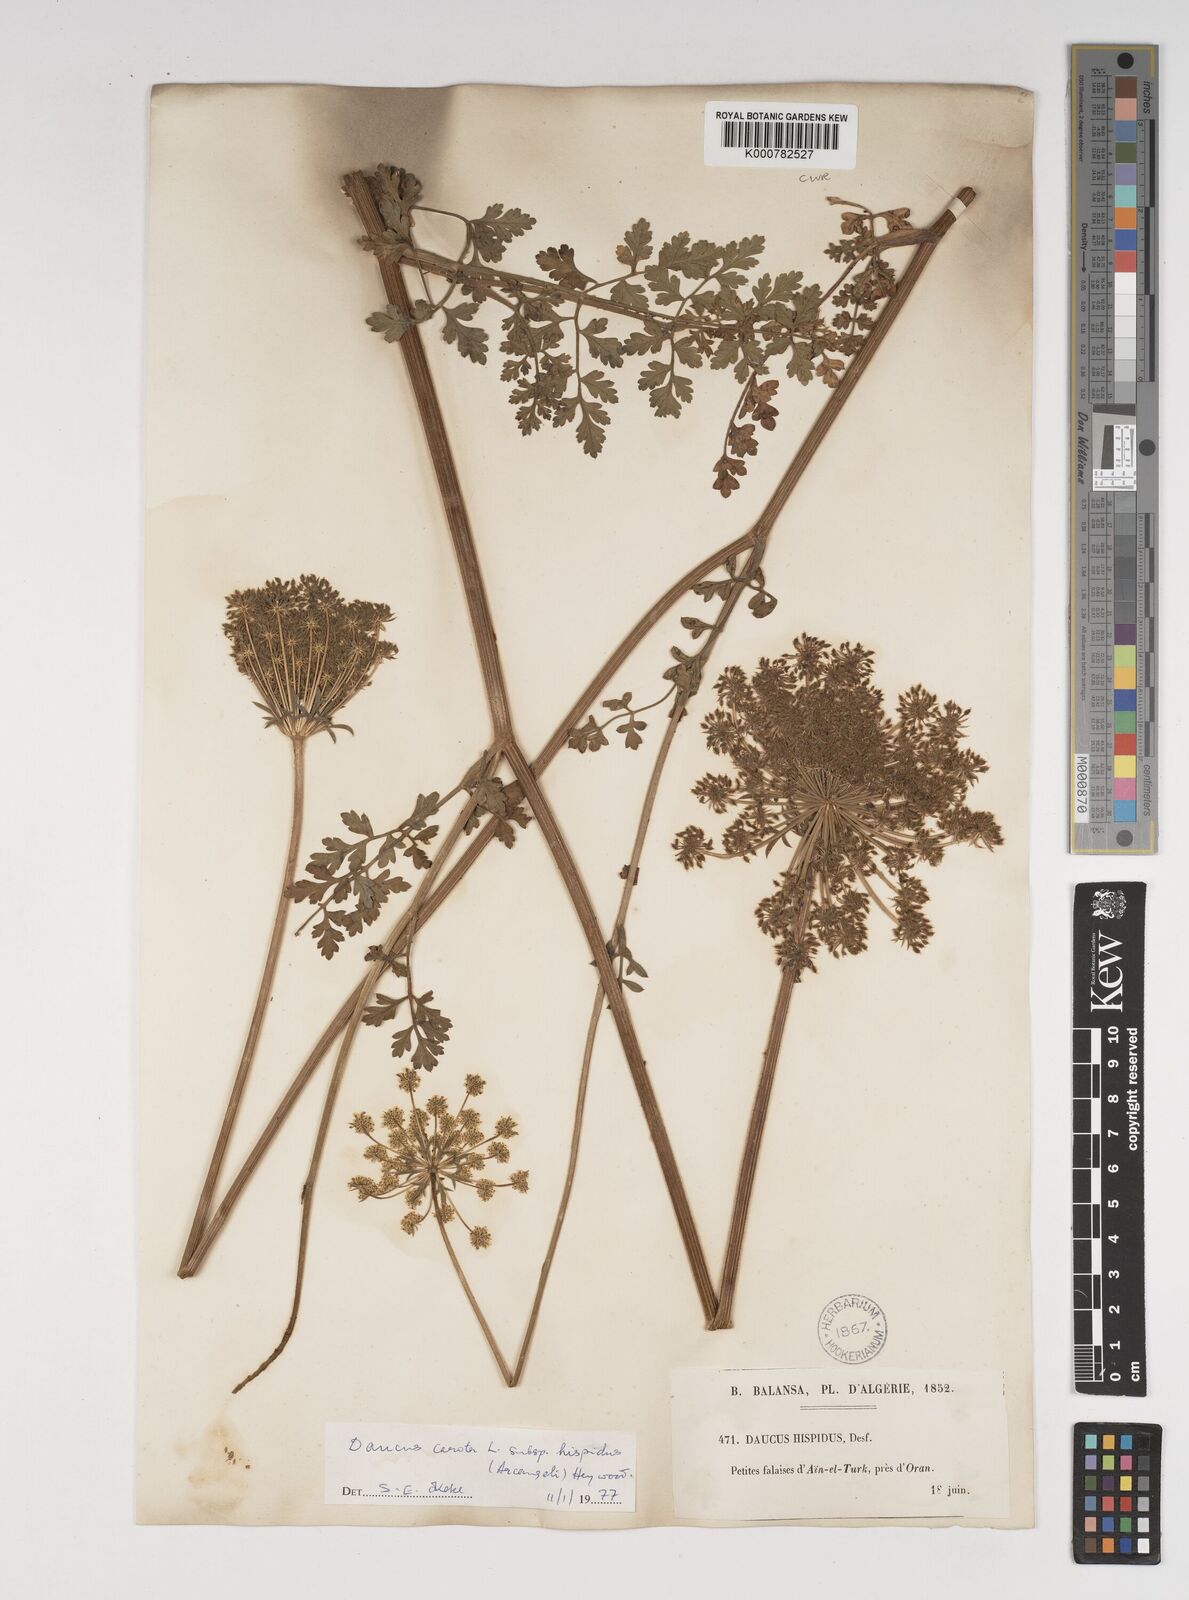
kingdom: Plantae
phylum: Tracheophyta
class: Magnoliopsida
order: Apiales
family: Apiaceae
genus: Daucus
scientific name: Daucus carota
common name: Wild carrot
